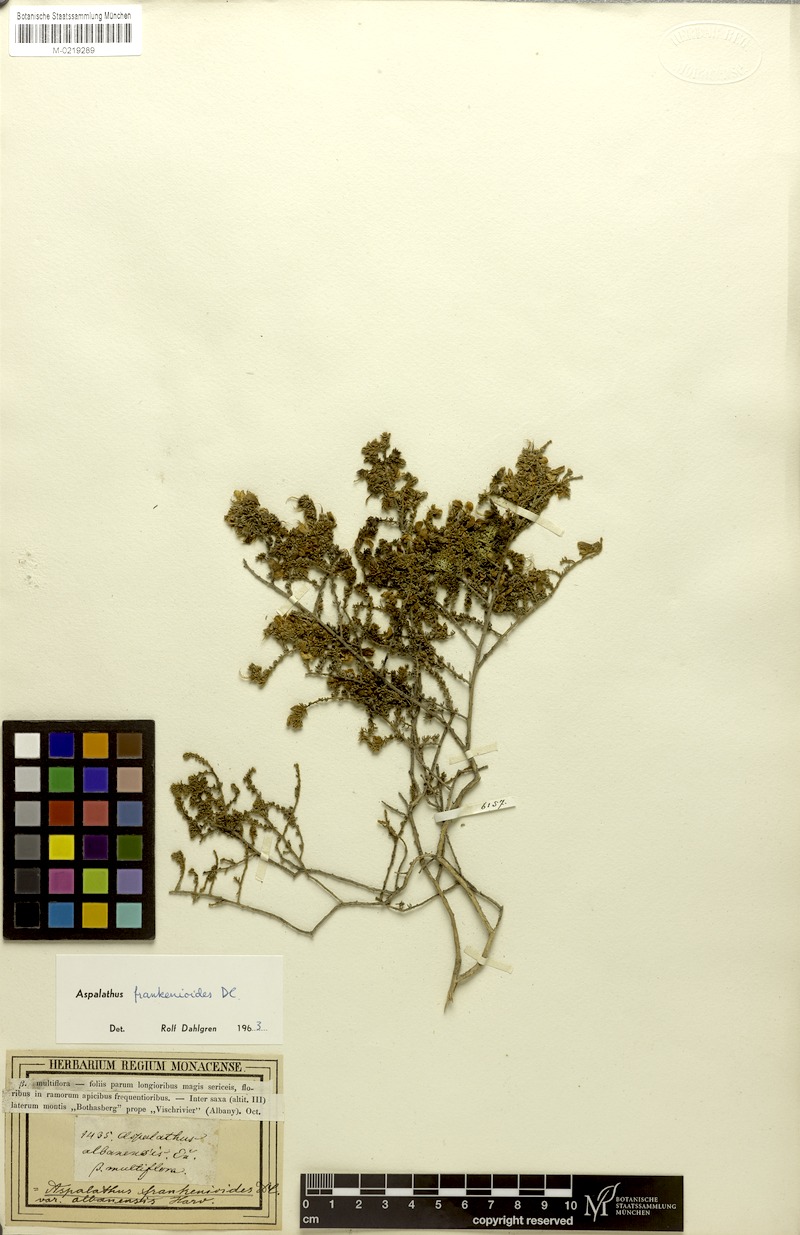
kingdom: Plantae
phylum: Tracheophyta
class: Magnoliopsida
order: Fabales
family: Fabaceae
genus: Aspalathus
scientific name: Aspalathus frankenioides
